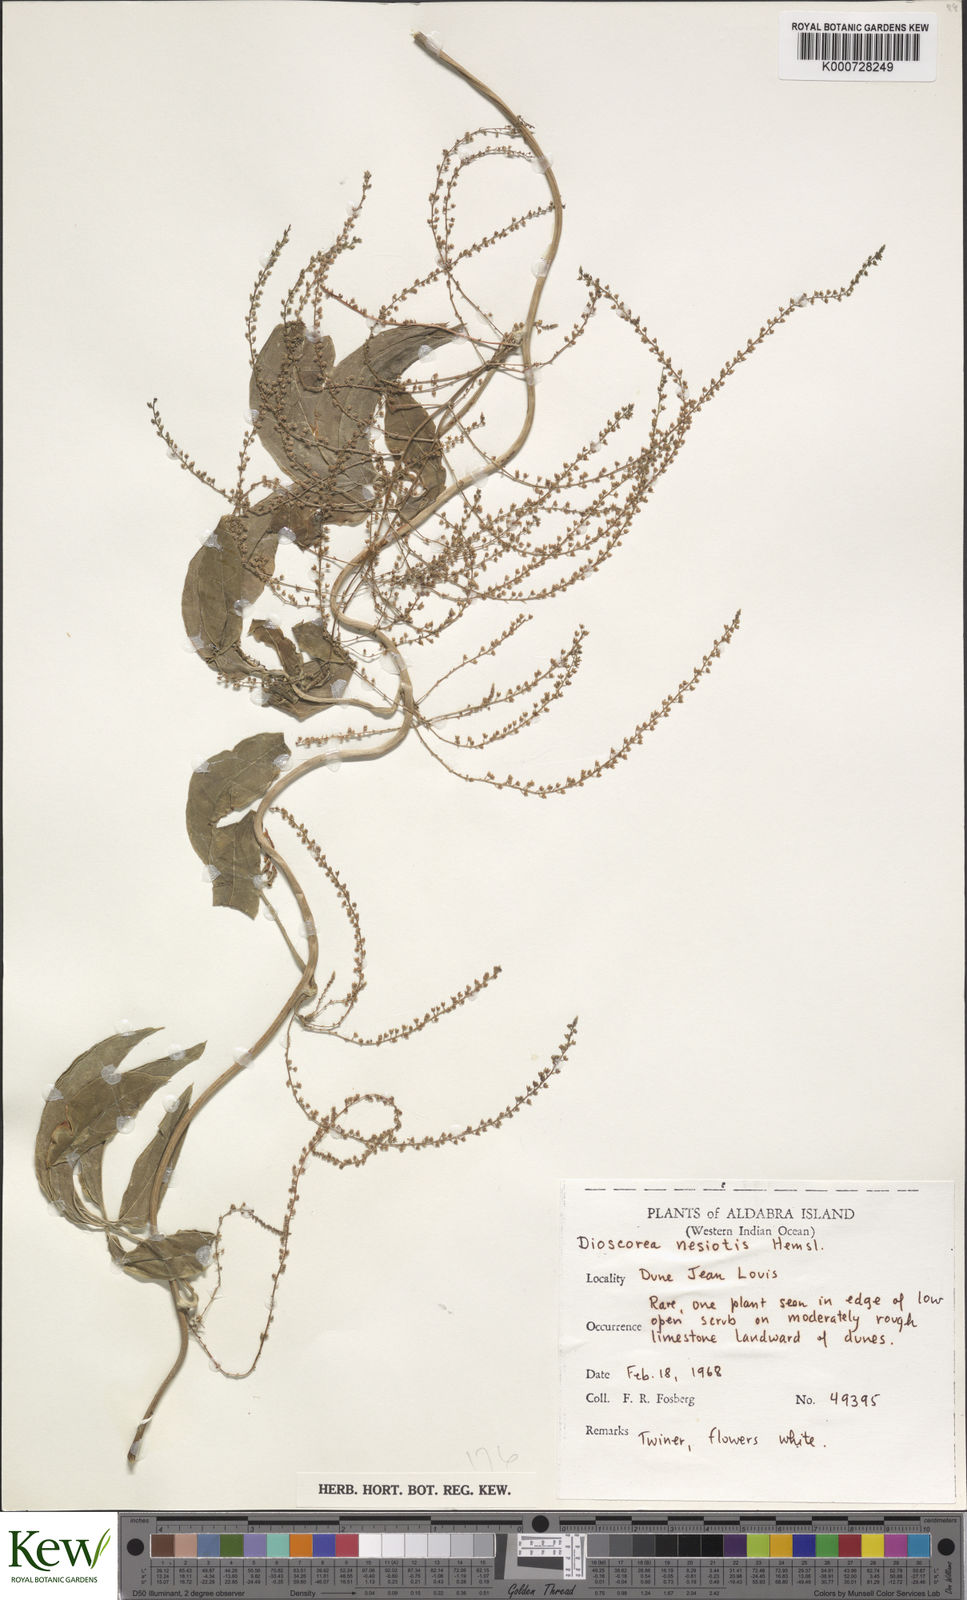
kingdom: Plantae
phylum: Tracheophyta
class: Liliopsida
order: Dioscoreales
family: Dioscoreaceae
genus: Dioscorea
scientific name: Dioscorea bemarivensis
